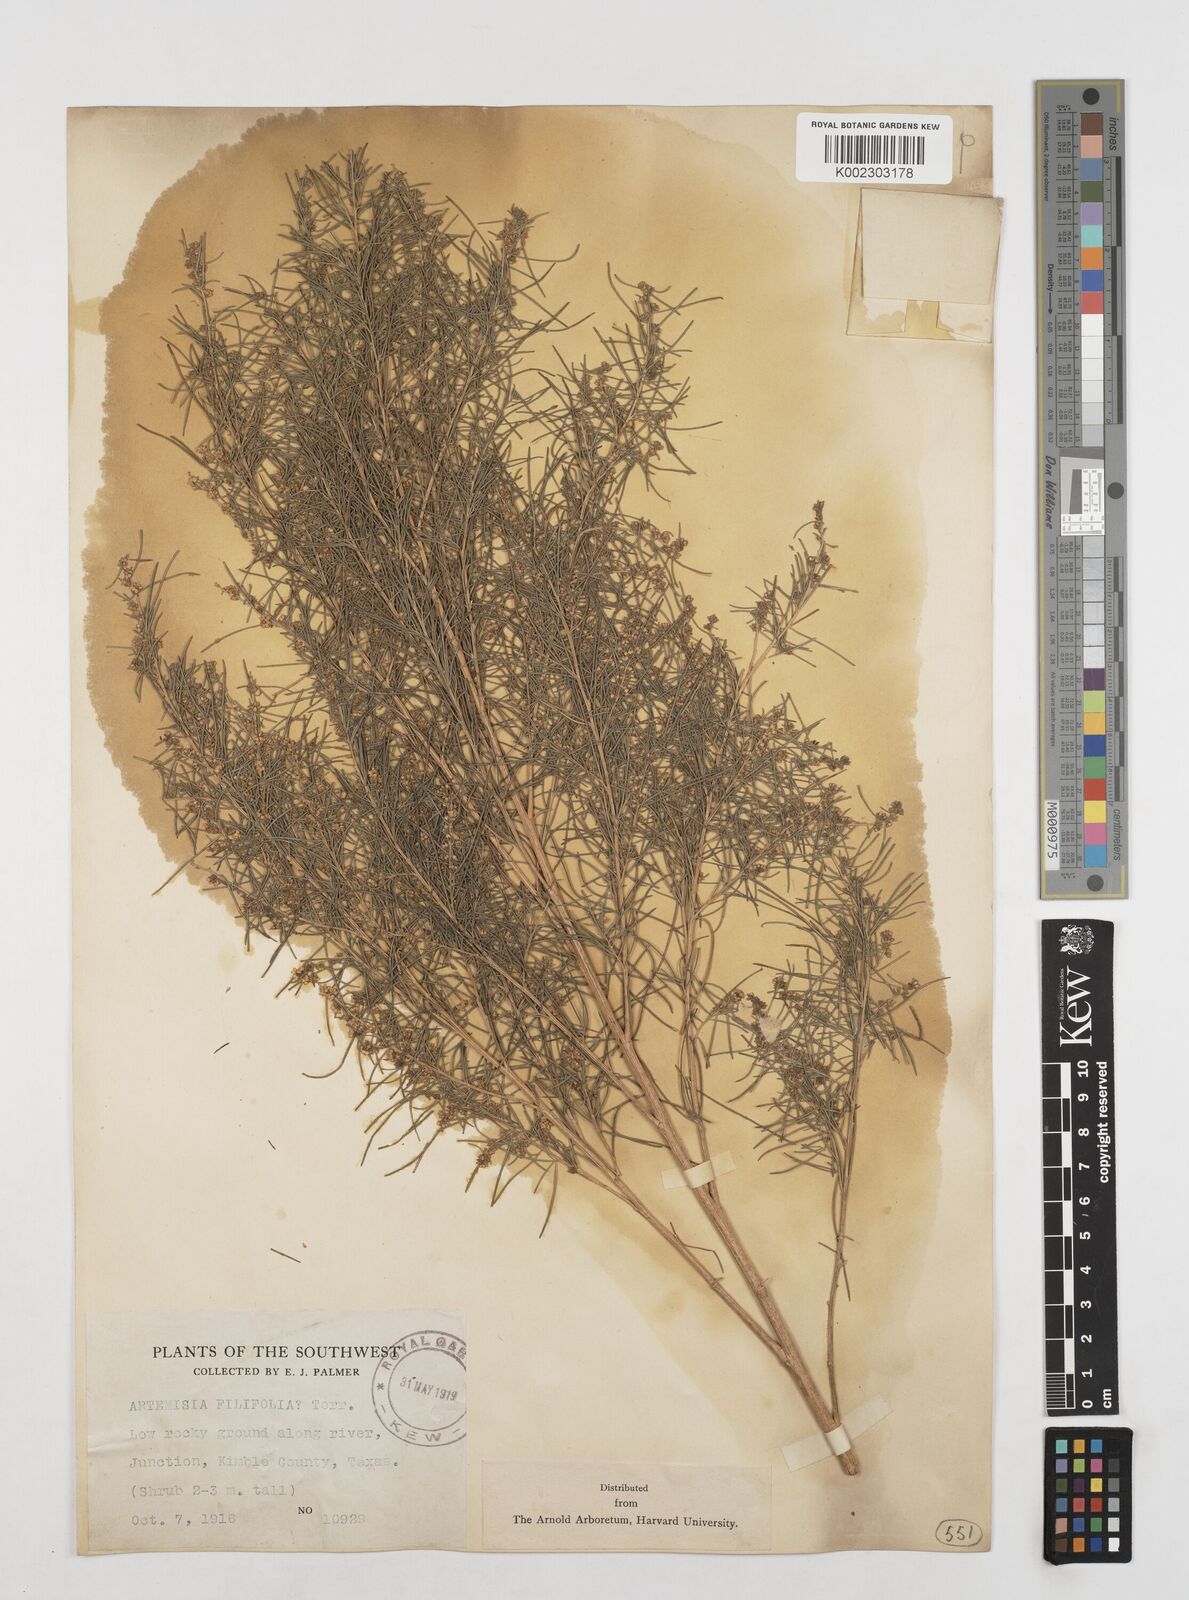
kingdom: Plantae
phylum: Tracheophyta
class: Magnoliopsida
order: Asterales
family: Asteraceae
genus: Artemisia
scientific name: Artemisia filifolia
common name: Sand-sage
